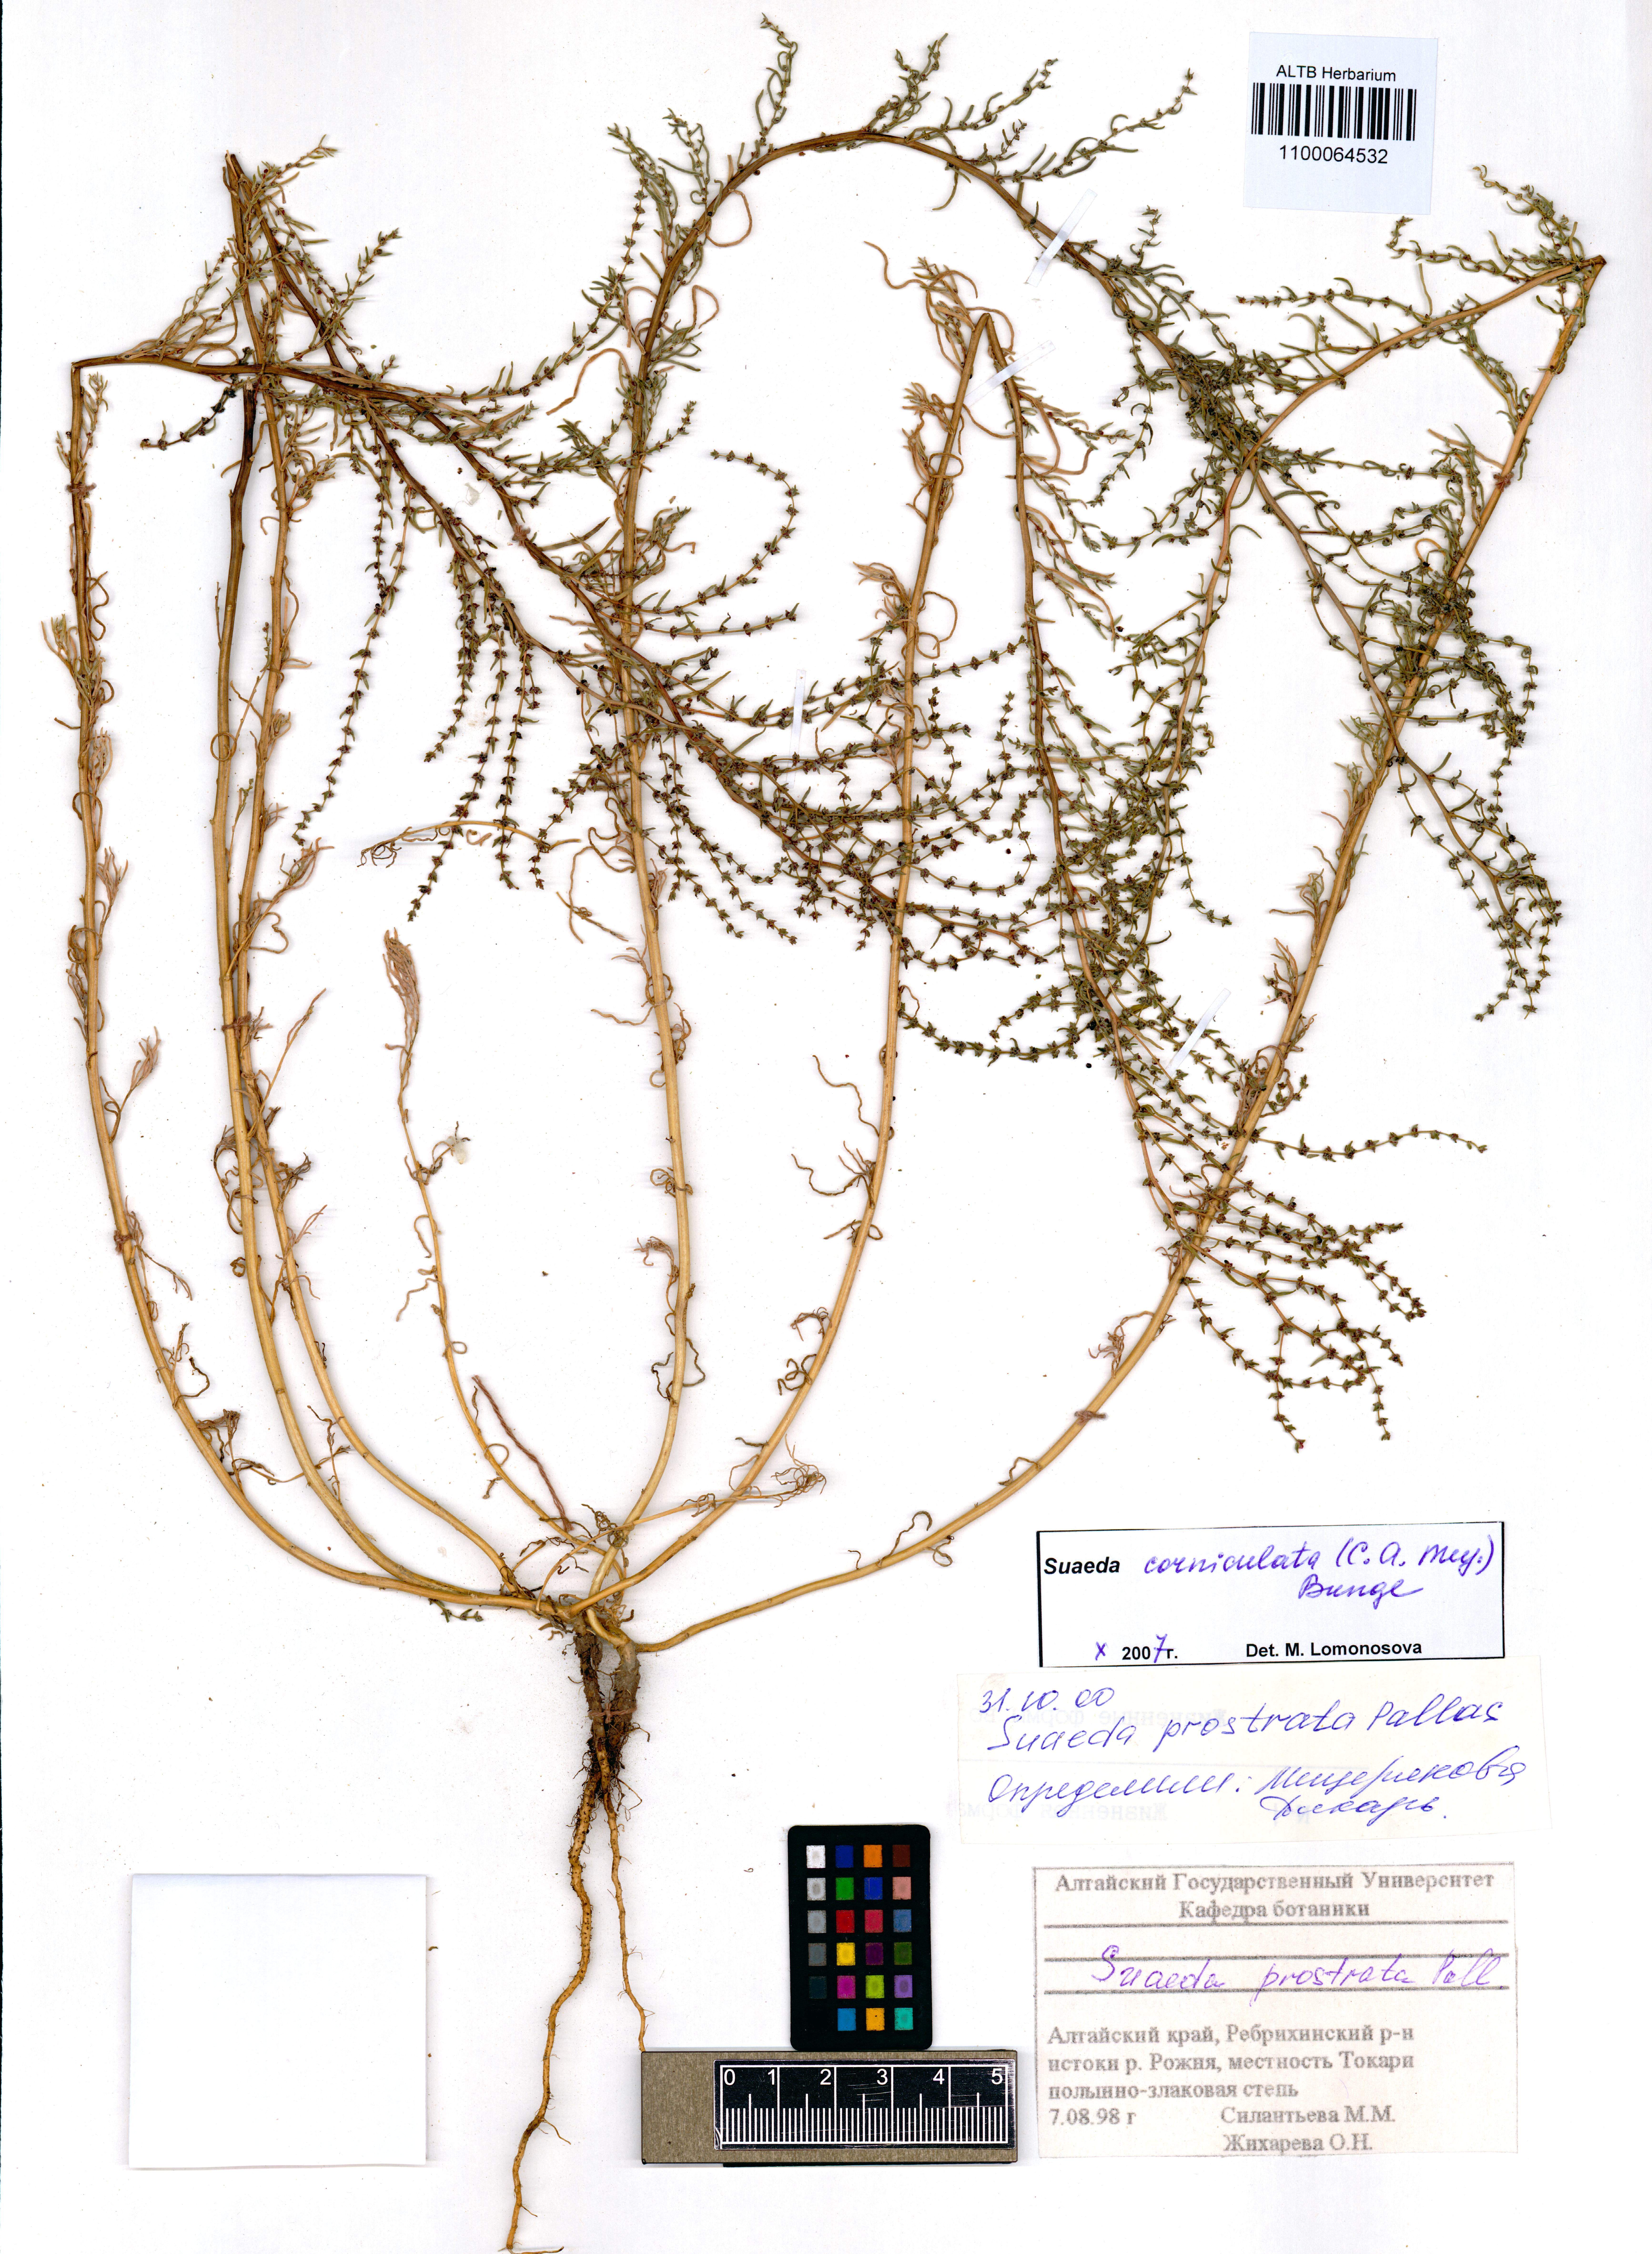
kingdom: Plantae
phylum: Tracheophyta
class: Magnoliopsida
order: Caryophyllales
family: Amaranthaceae
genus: Suaeda
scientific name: Suaeda corniculata
